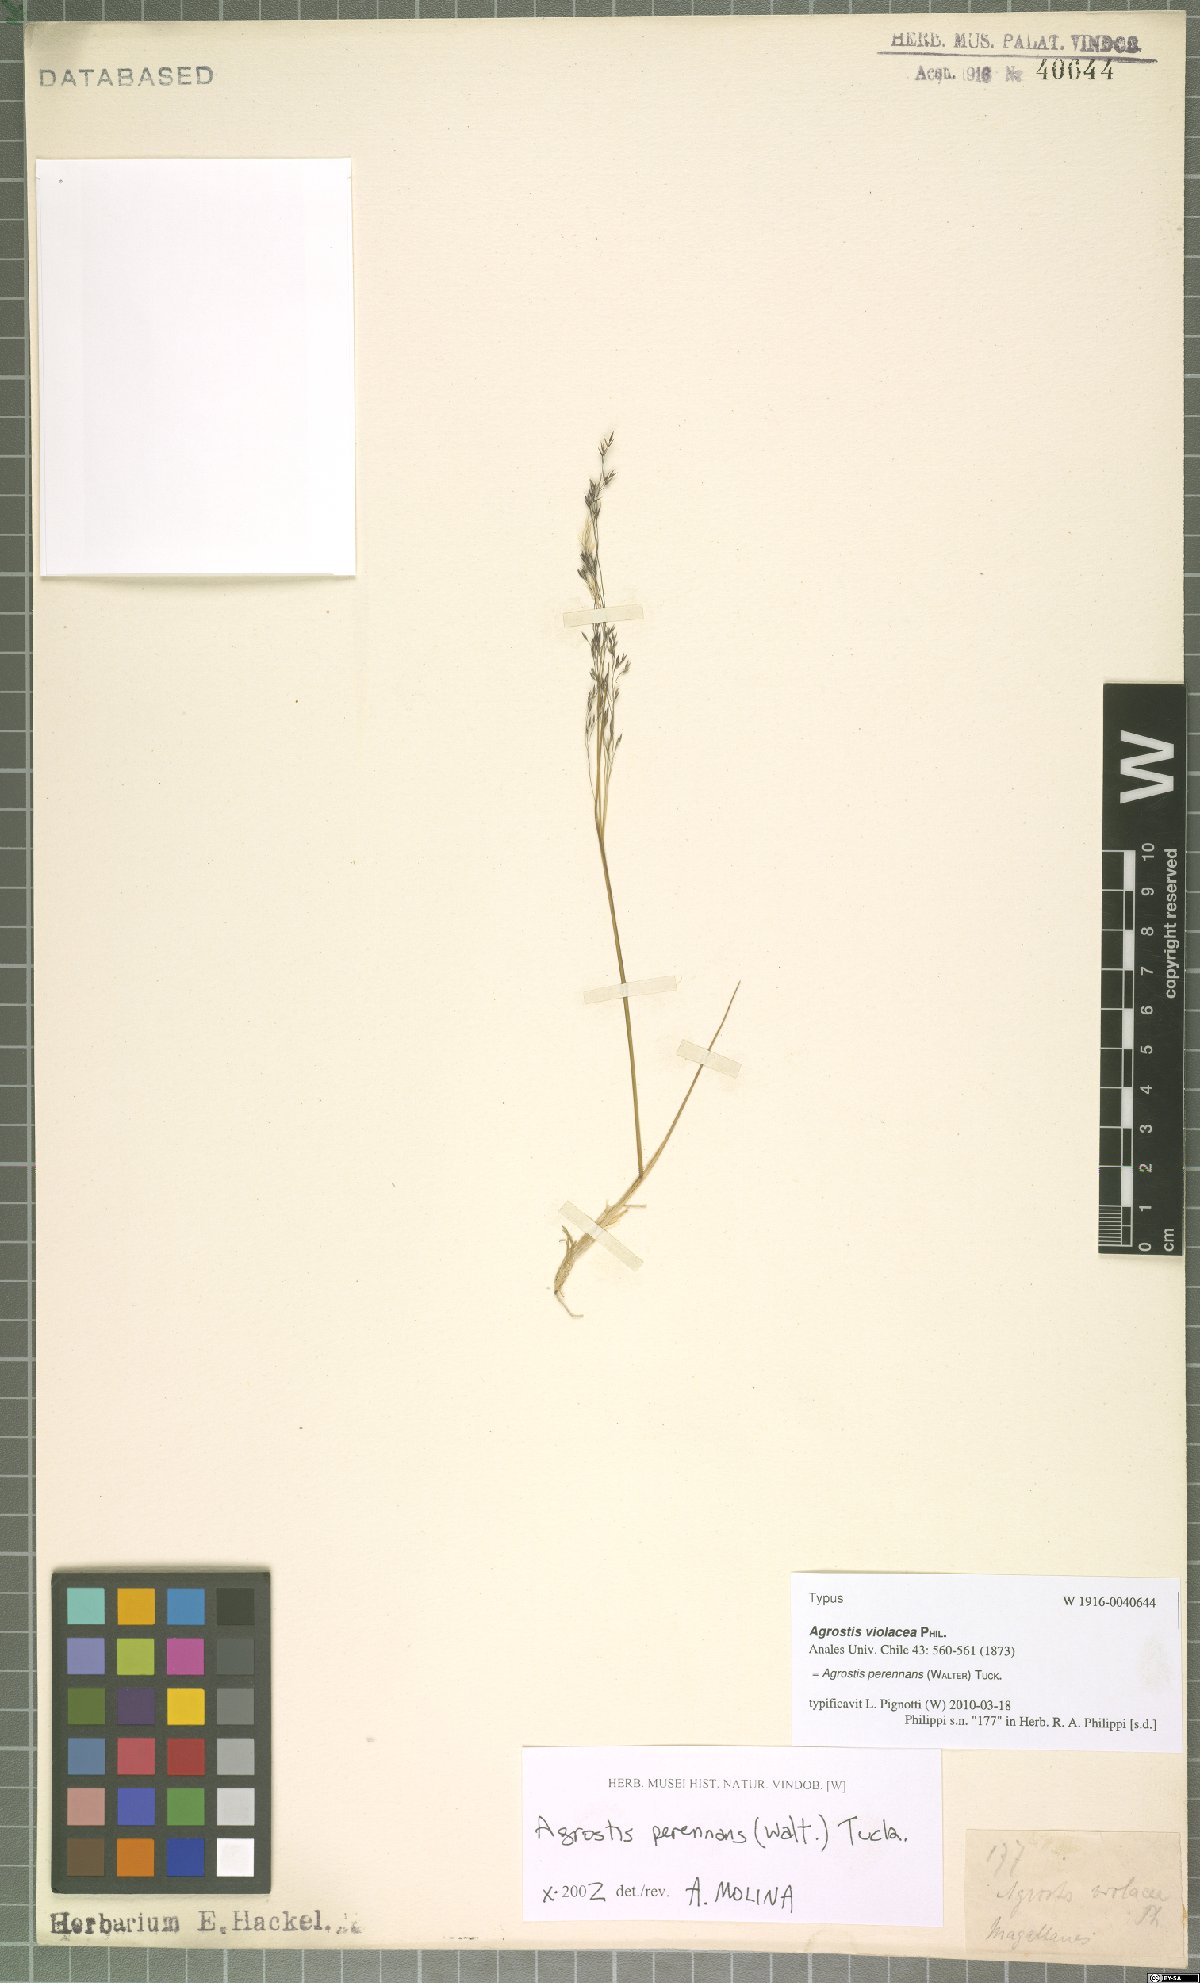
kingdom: Plantae
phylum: Tracheophyta
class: Liliopsida
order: Poales
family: Poaceae
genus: Agrostis
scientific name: Agrostis perennans
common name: Autumn bent
